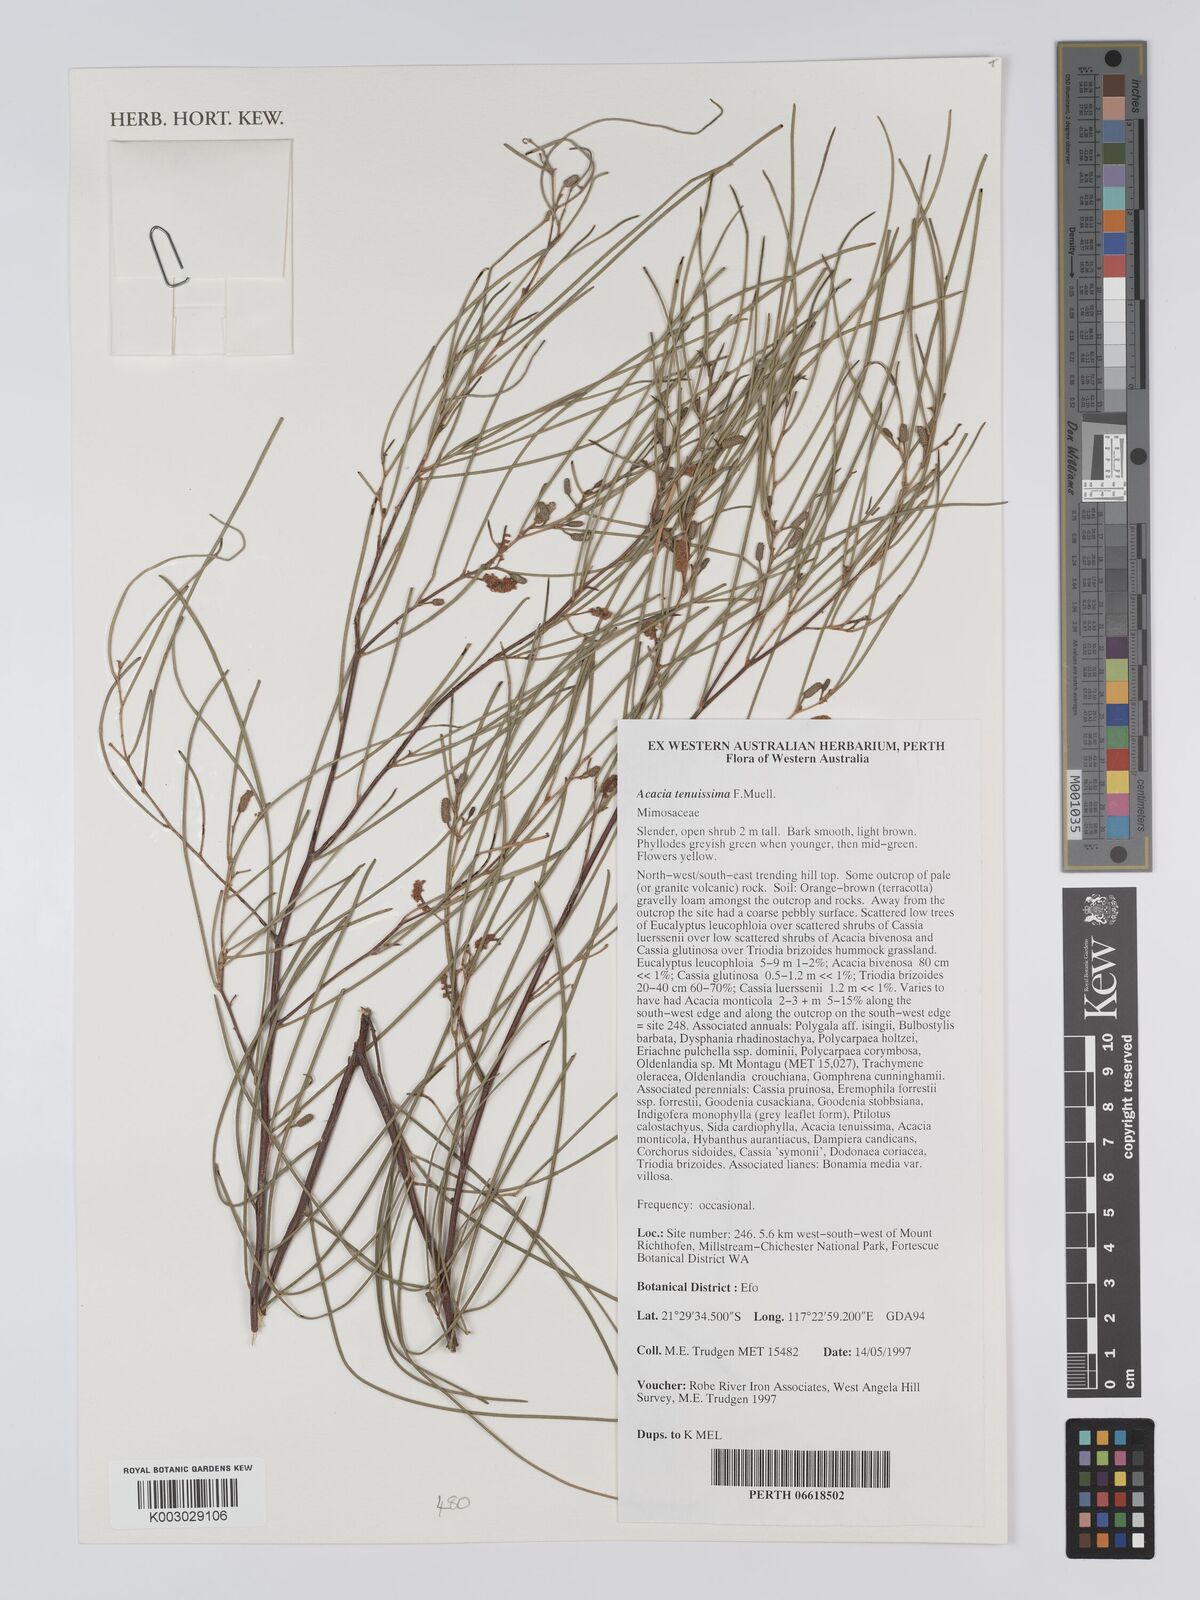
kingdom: Plantae
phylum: Tracheophyta
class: Magnoliopsida
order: Fabales
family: Fabaceae
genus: Acacia
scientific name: Acacia tenuissima
